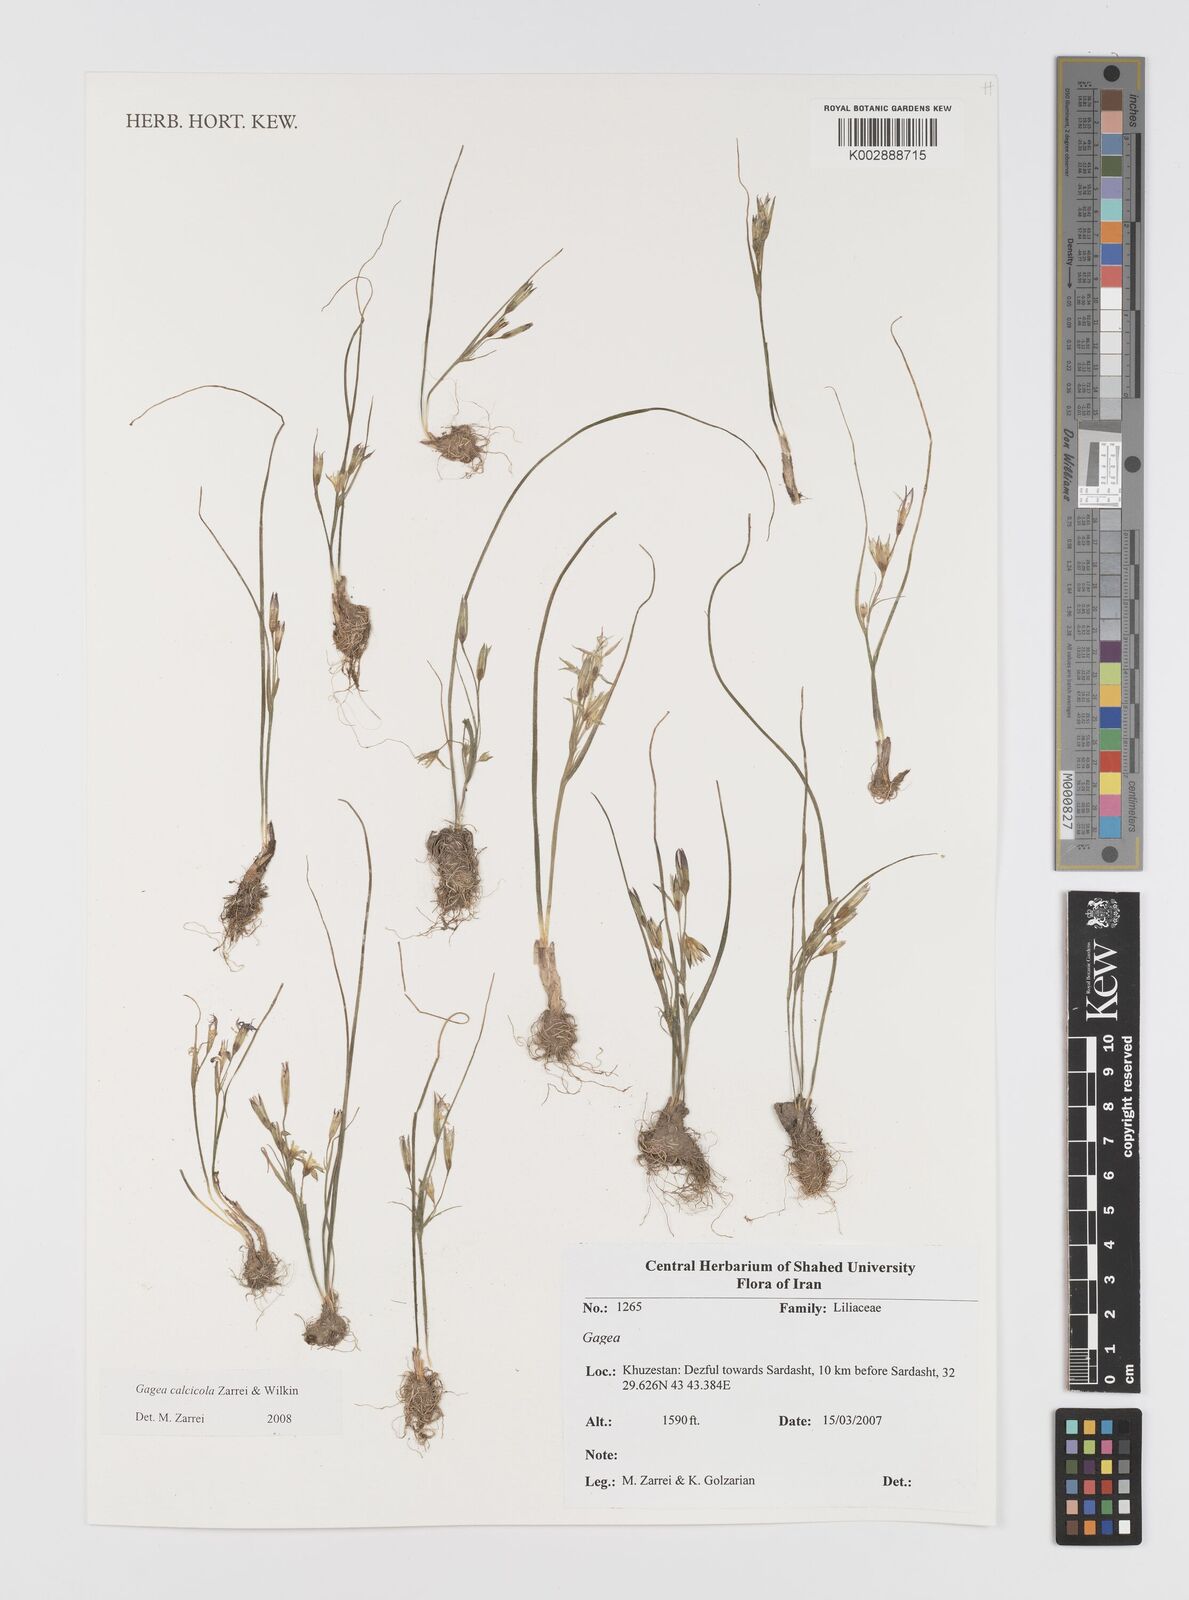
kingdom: Plantae
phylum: Tracheophyta
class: Liliopsida
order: Liliales
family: Liliaceae
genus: Gagea
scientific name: Gagea calcicola
